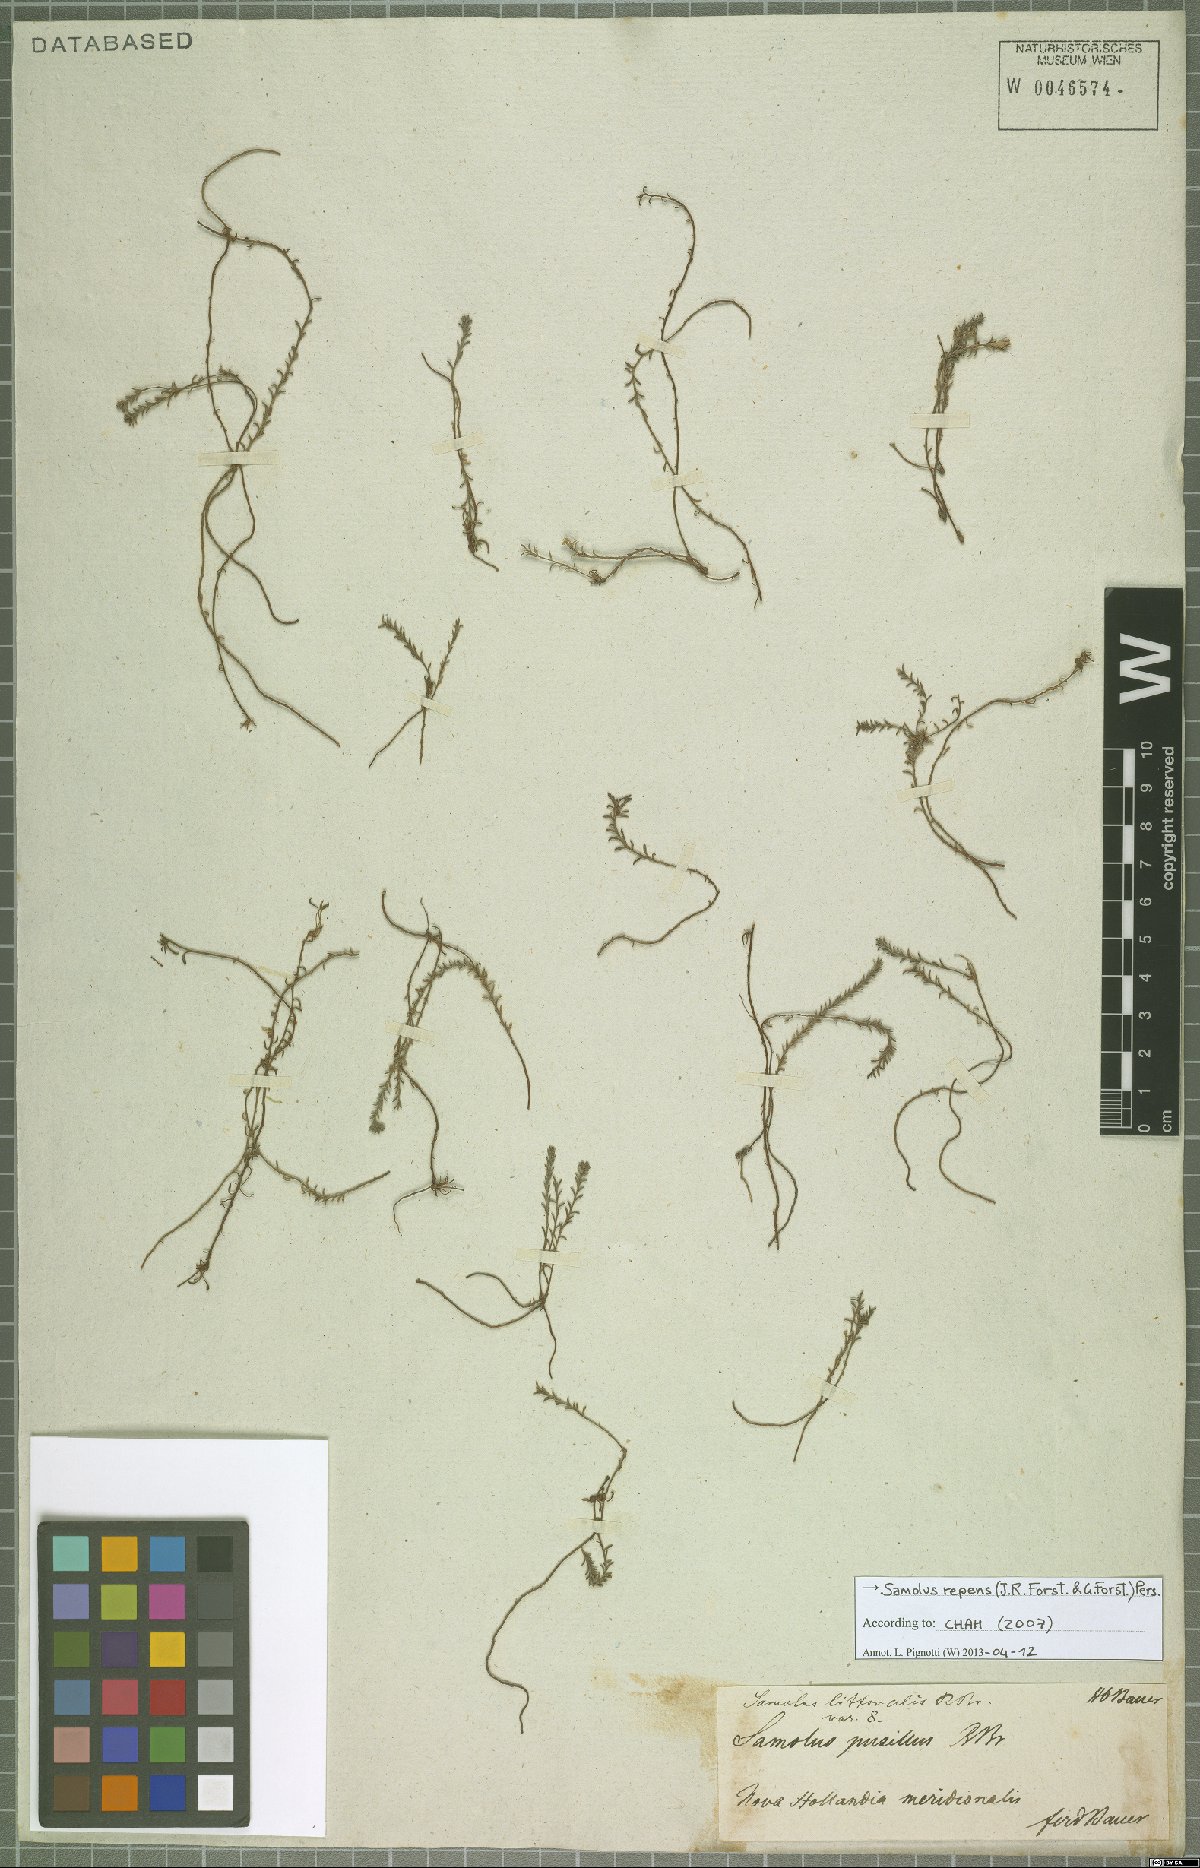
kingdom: Plantae
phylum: Tracheophyta
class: Magnoliopsida
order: Ericales
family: Primulaceae
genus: Samolus
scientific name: Samolus repens
